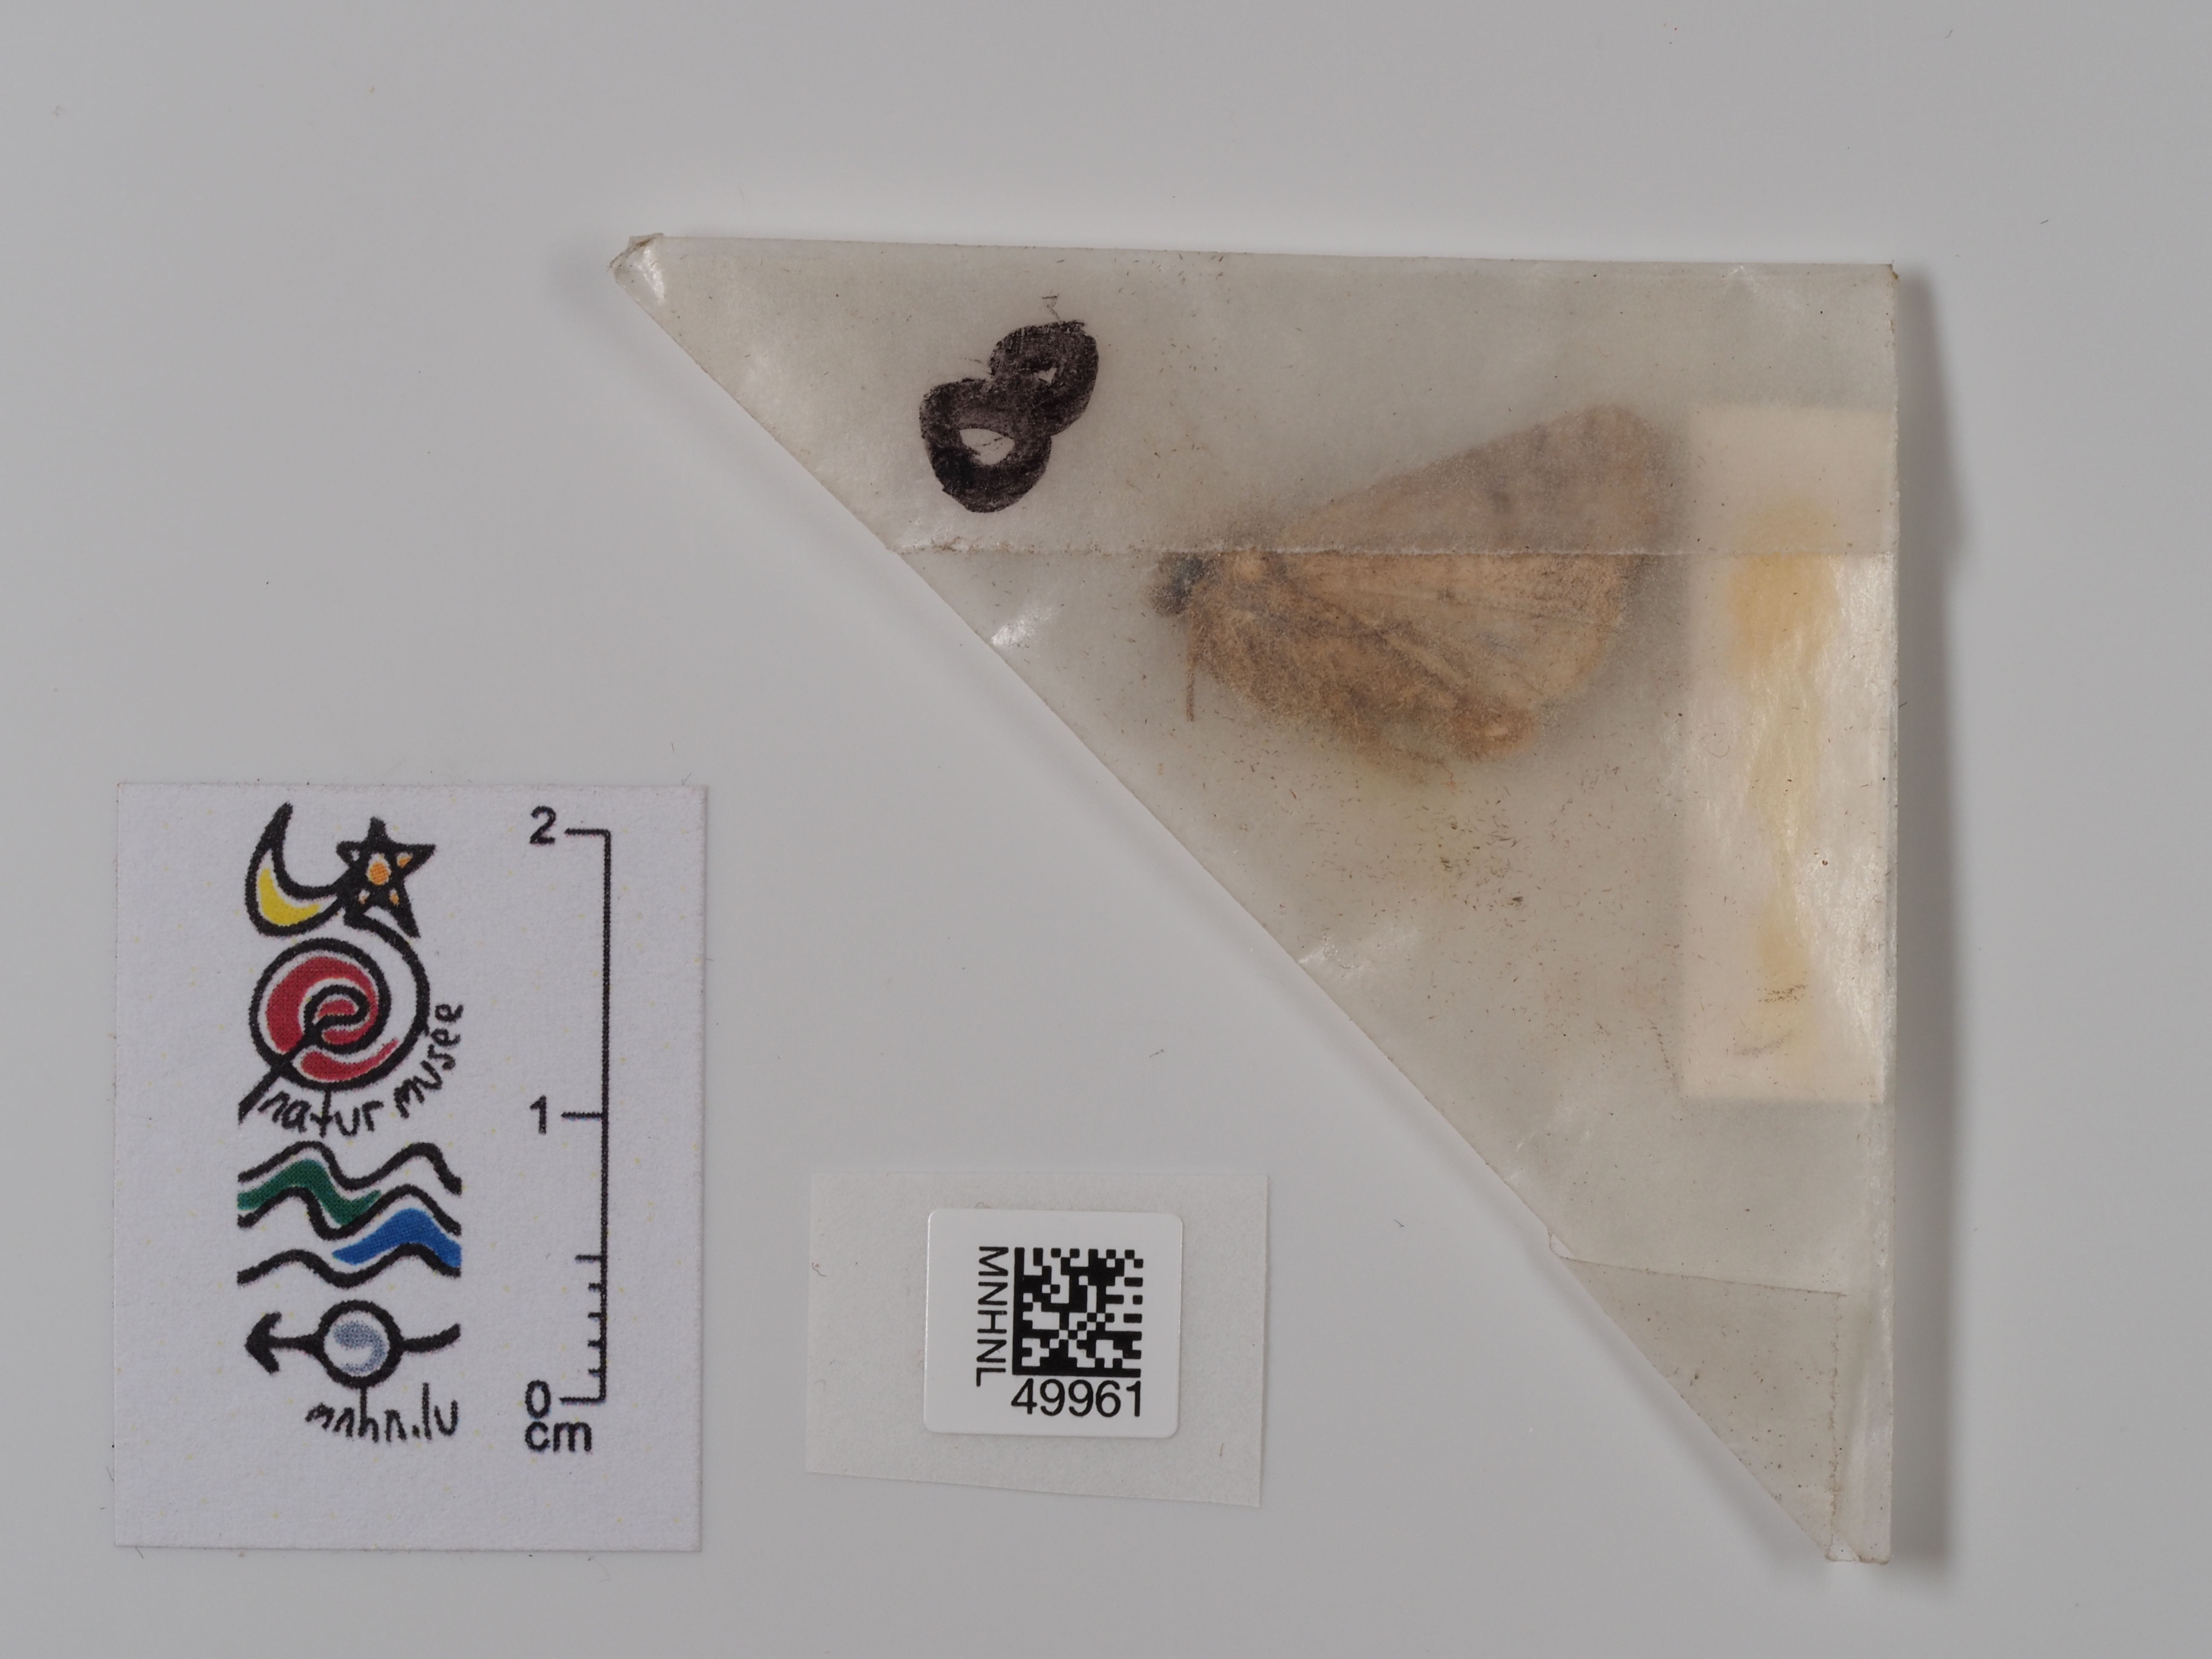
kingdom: Animalia
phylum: Arthropoda
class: Insecta
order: Lepidoptera
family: Noctuidae
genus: Caradrina
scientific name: Caradrina morpheus
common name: Mottled rustic
